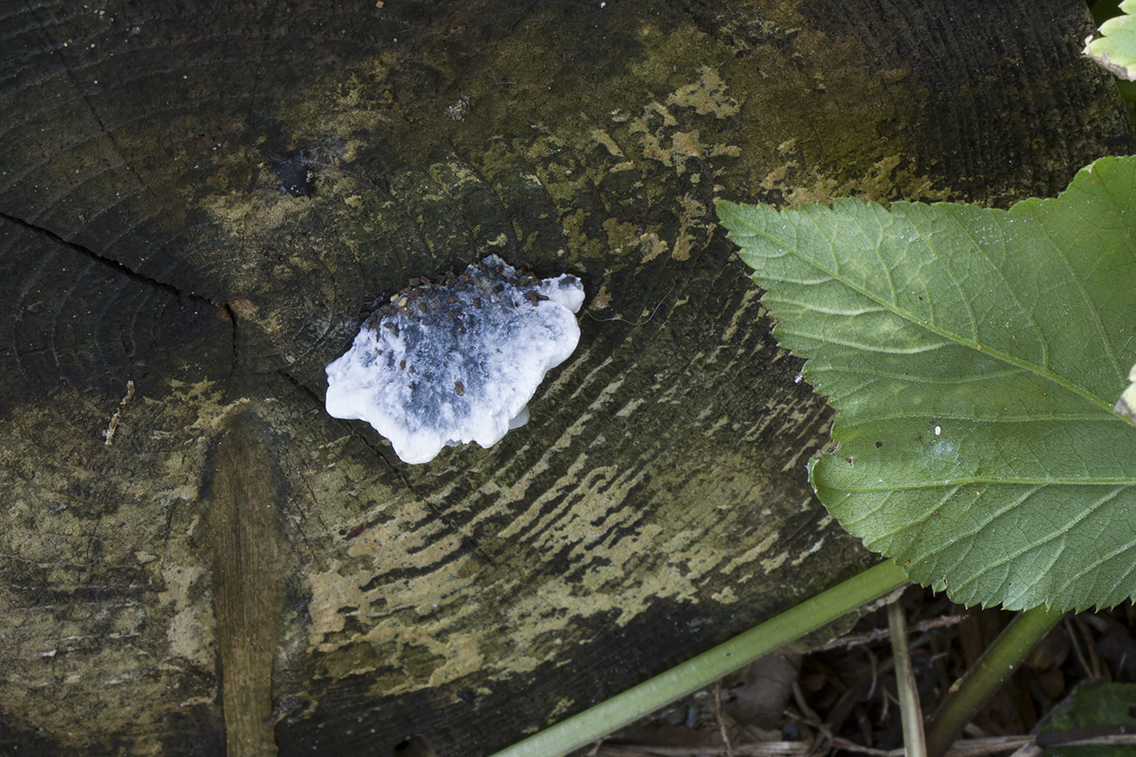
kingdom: Fungi
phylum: Basidiomycota
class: Agaricomycetes
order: Polyporales
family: Polyporaceae
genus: Cyanosporus
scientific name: Cyanosporus caesius
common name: blålig kødporesvamp
